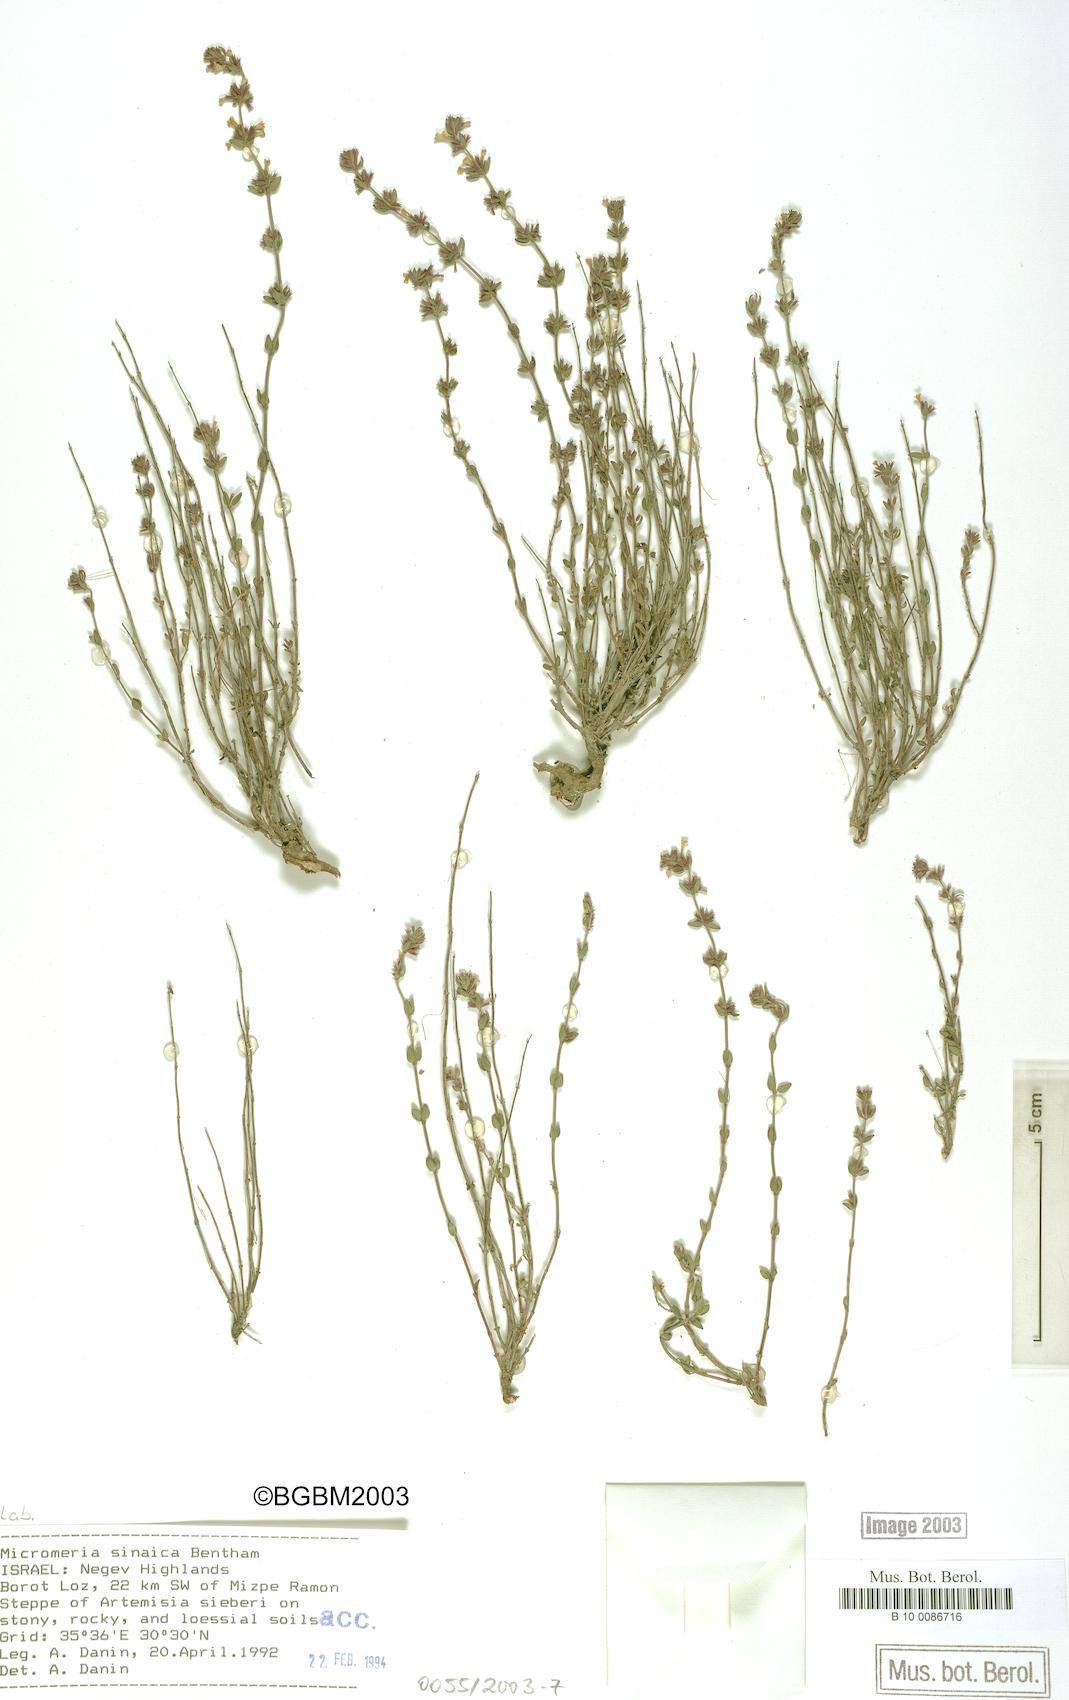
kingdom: Plantae
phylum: Tracheophyta
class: Magnoliopsida
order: Lamiales
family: Lamiaceae
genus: Micromeria
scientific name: Micromeria sinaica
